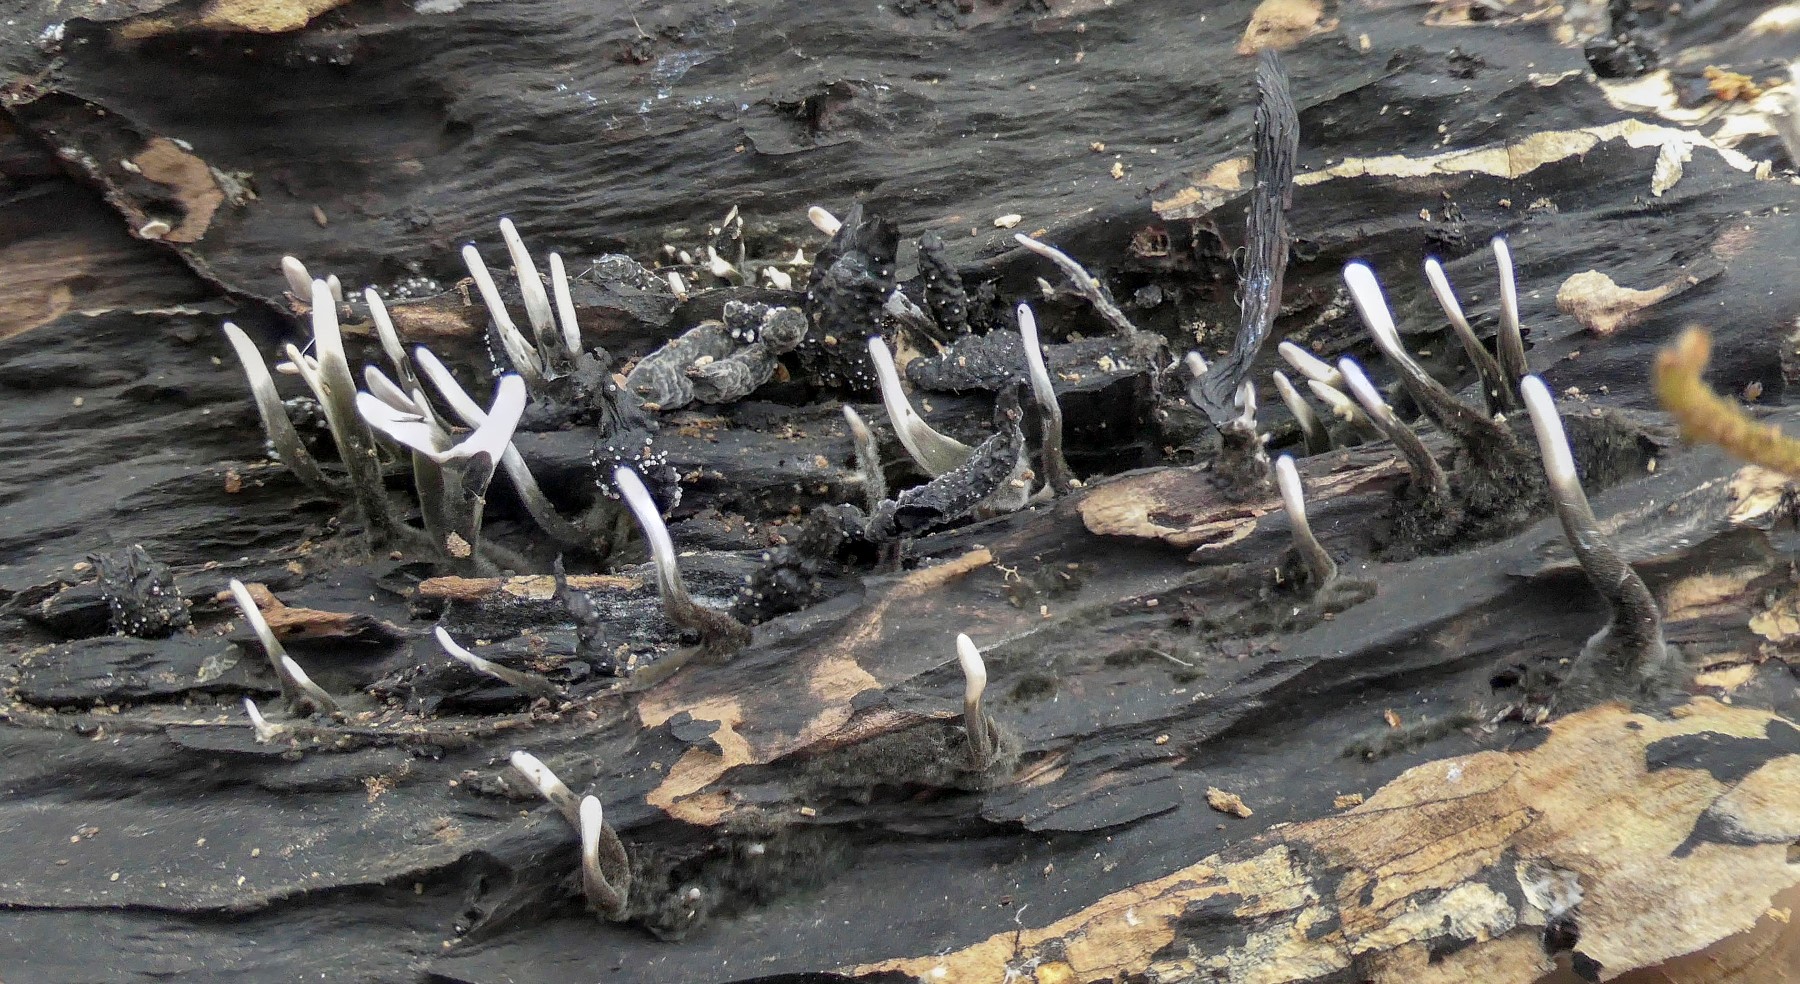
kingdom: Fungi
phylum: Ascomycota
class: Sordariomycetes
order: Xylariales
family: Xylariaceae
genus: Xylaria
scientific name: Xylaria hypoxylon
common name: grenet stødsvamp
